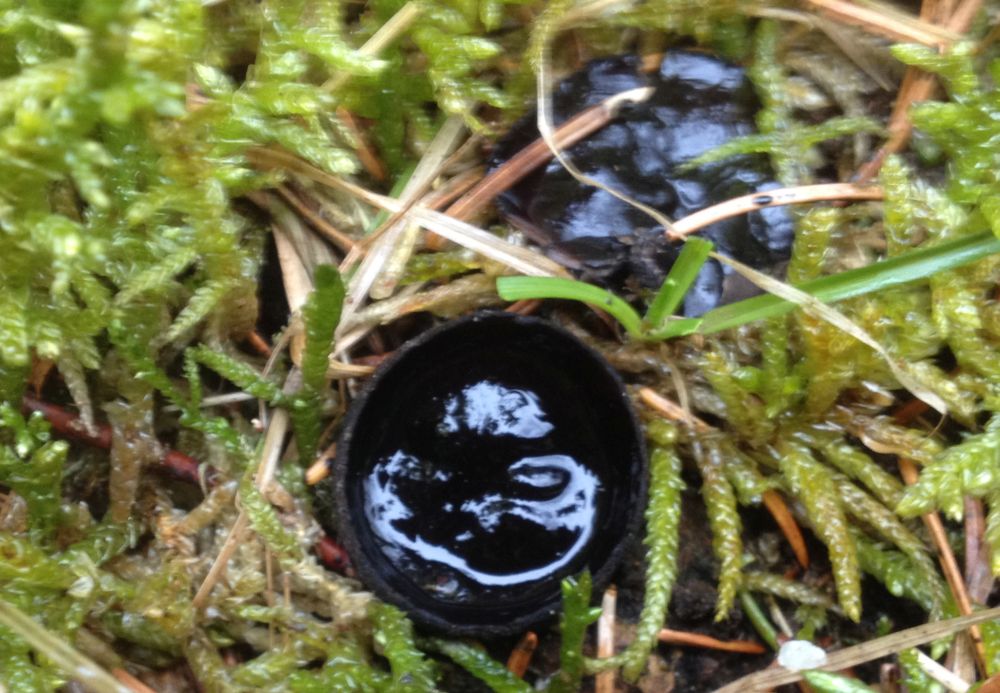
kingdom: Fungi
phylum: Ascomycota
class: Pezizomycetes
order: Pezizales
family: Sarcosomataceae
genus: Pseudoplectania
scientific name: Pseudoplectania nigrella
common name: almindelig sortbæger
